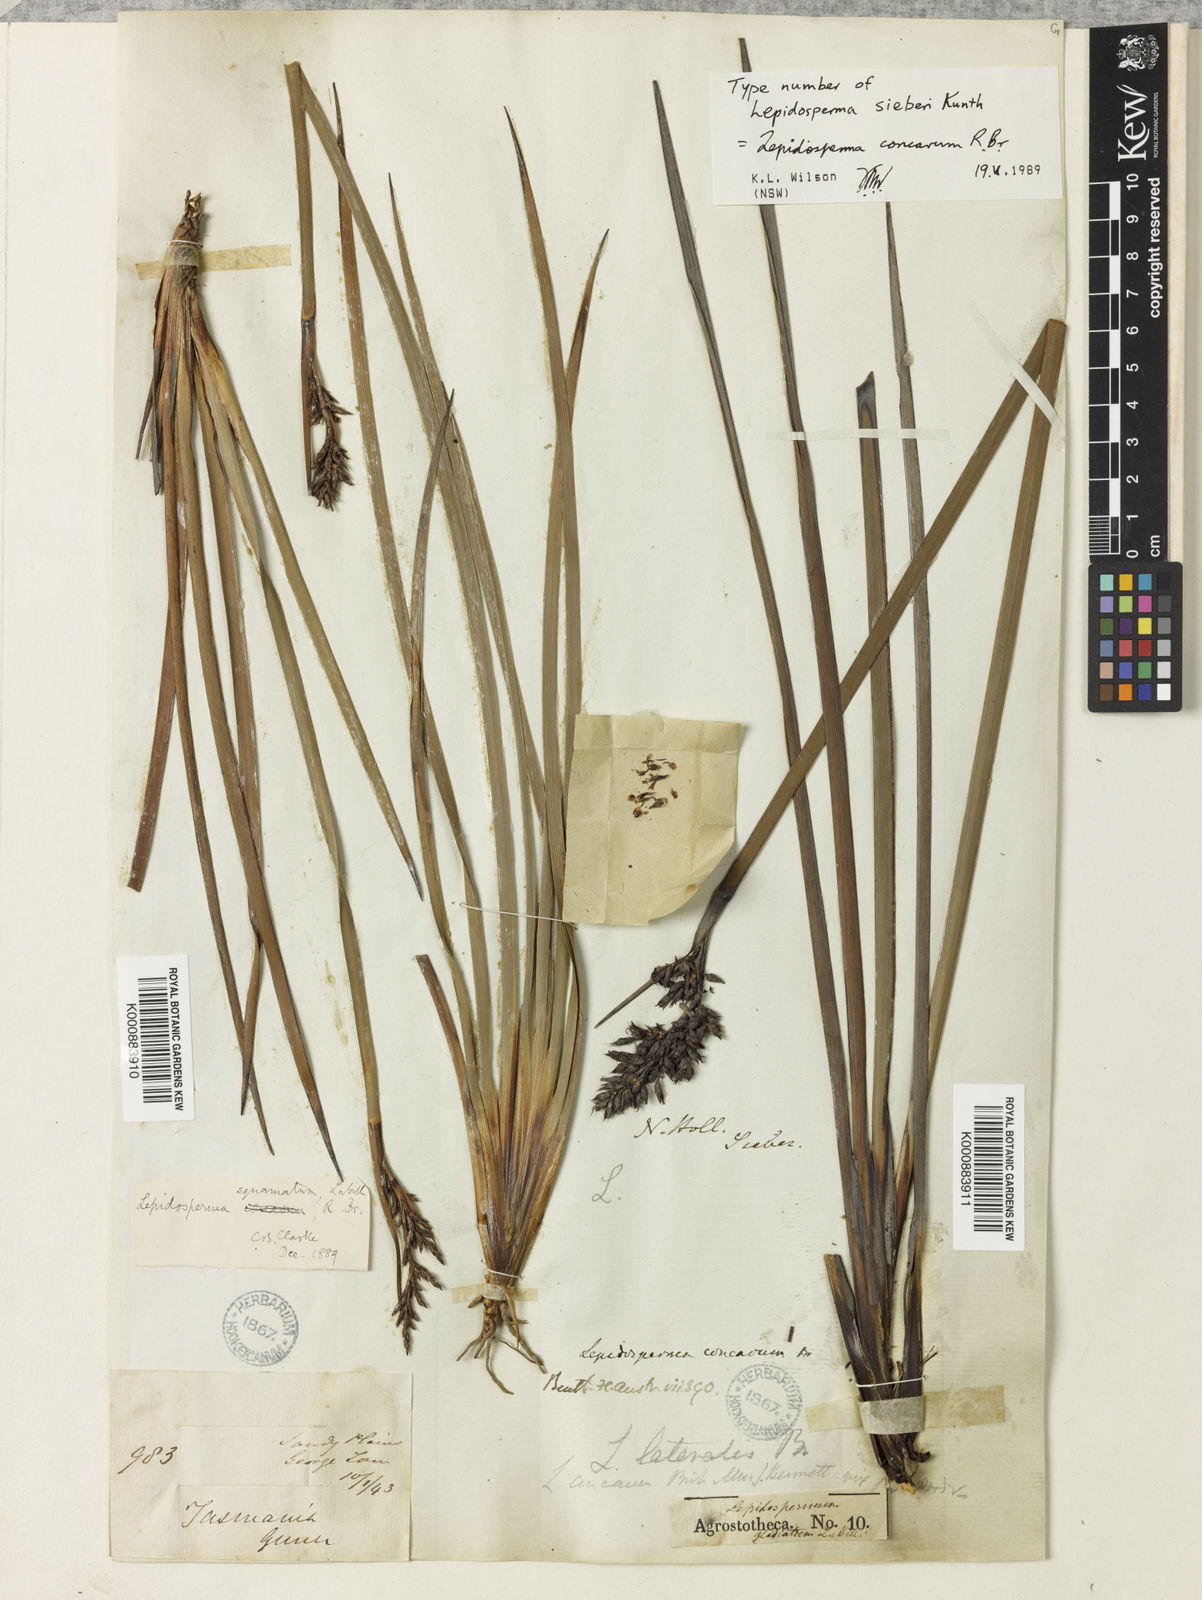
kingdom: Plantae
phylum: Tracheophyta
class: Liliopsida
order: Poales
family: Cyperaceae
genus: Lepidosperma
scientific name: Lepidosperma
